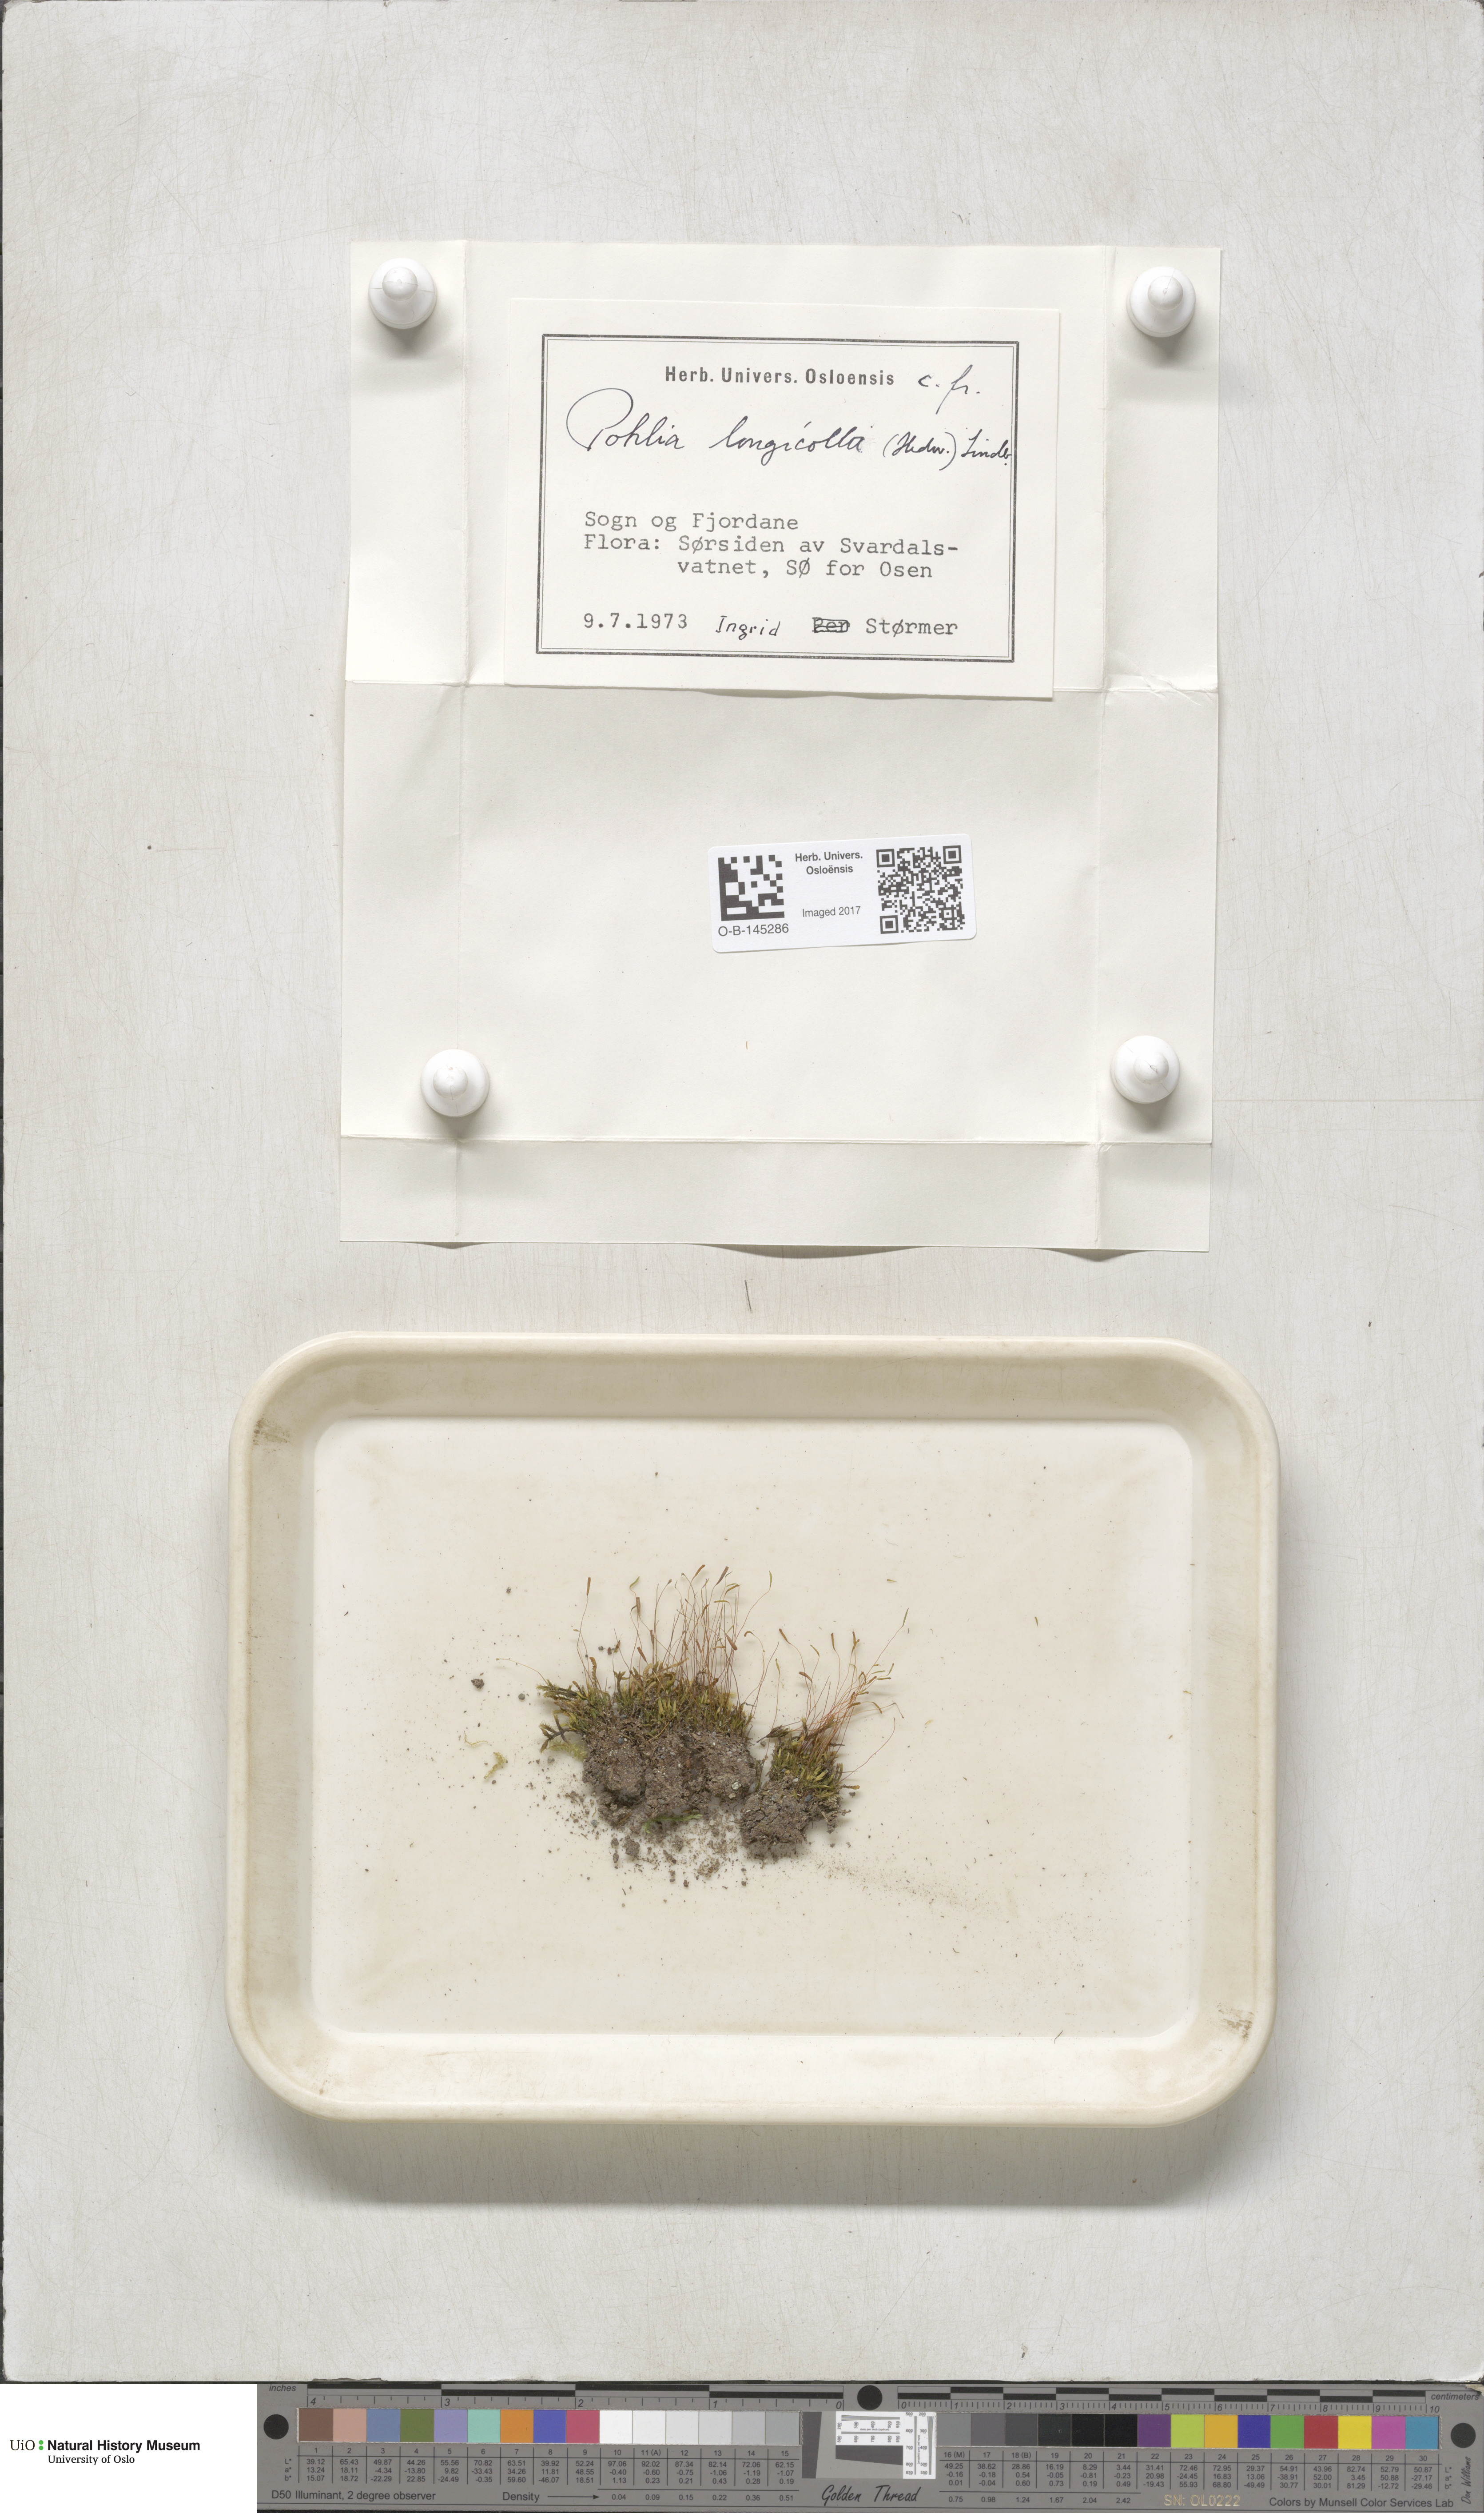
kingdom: Plantae
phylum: Bryophyta
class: Bryopsida
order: Bryales
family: Mniaceae
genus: Pohlia
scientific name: Pohlia longicolla
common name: Long-necked nodding moss
